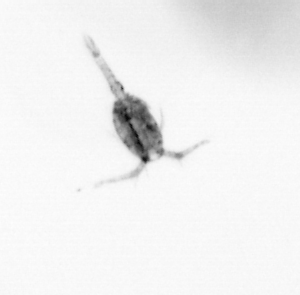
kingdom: Animalia
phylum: Arthropoda
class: Copepoda
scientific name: Copepoda
